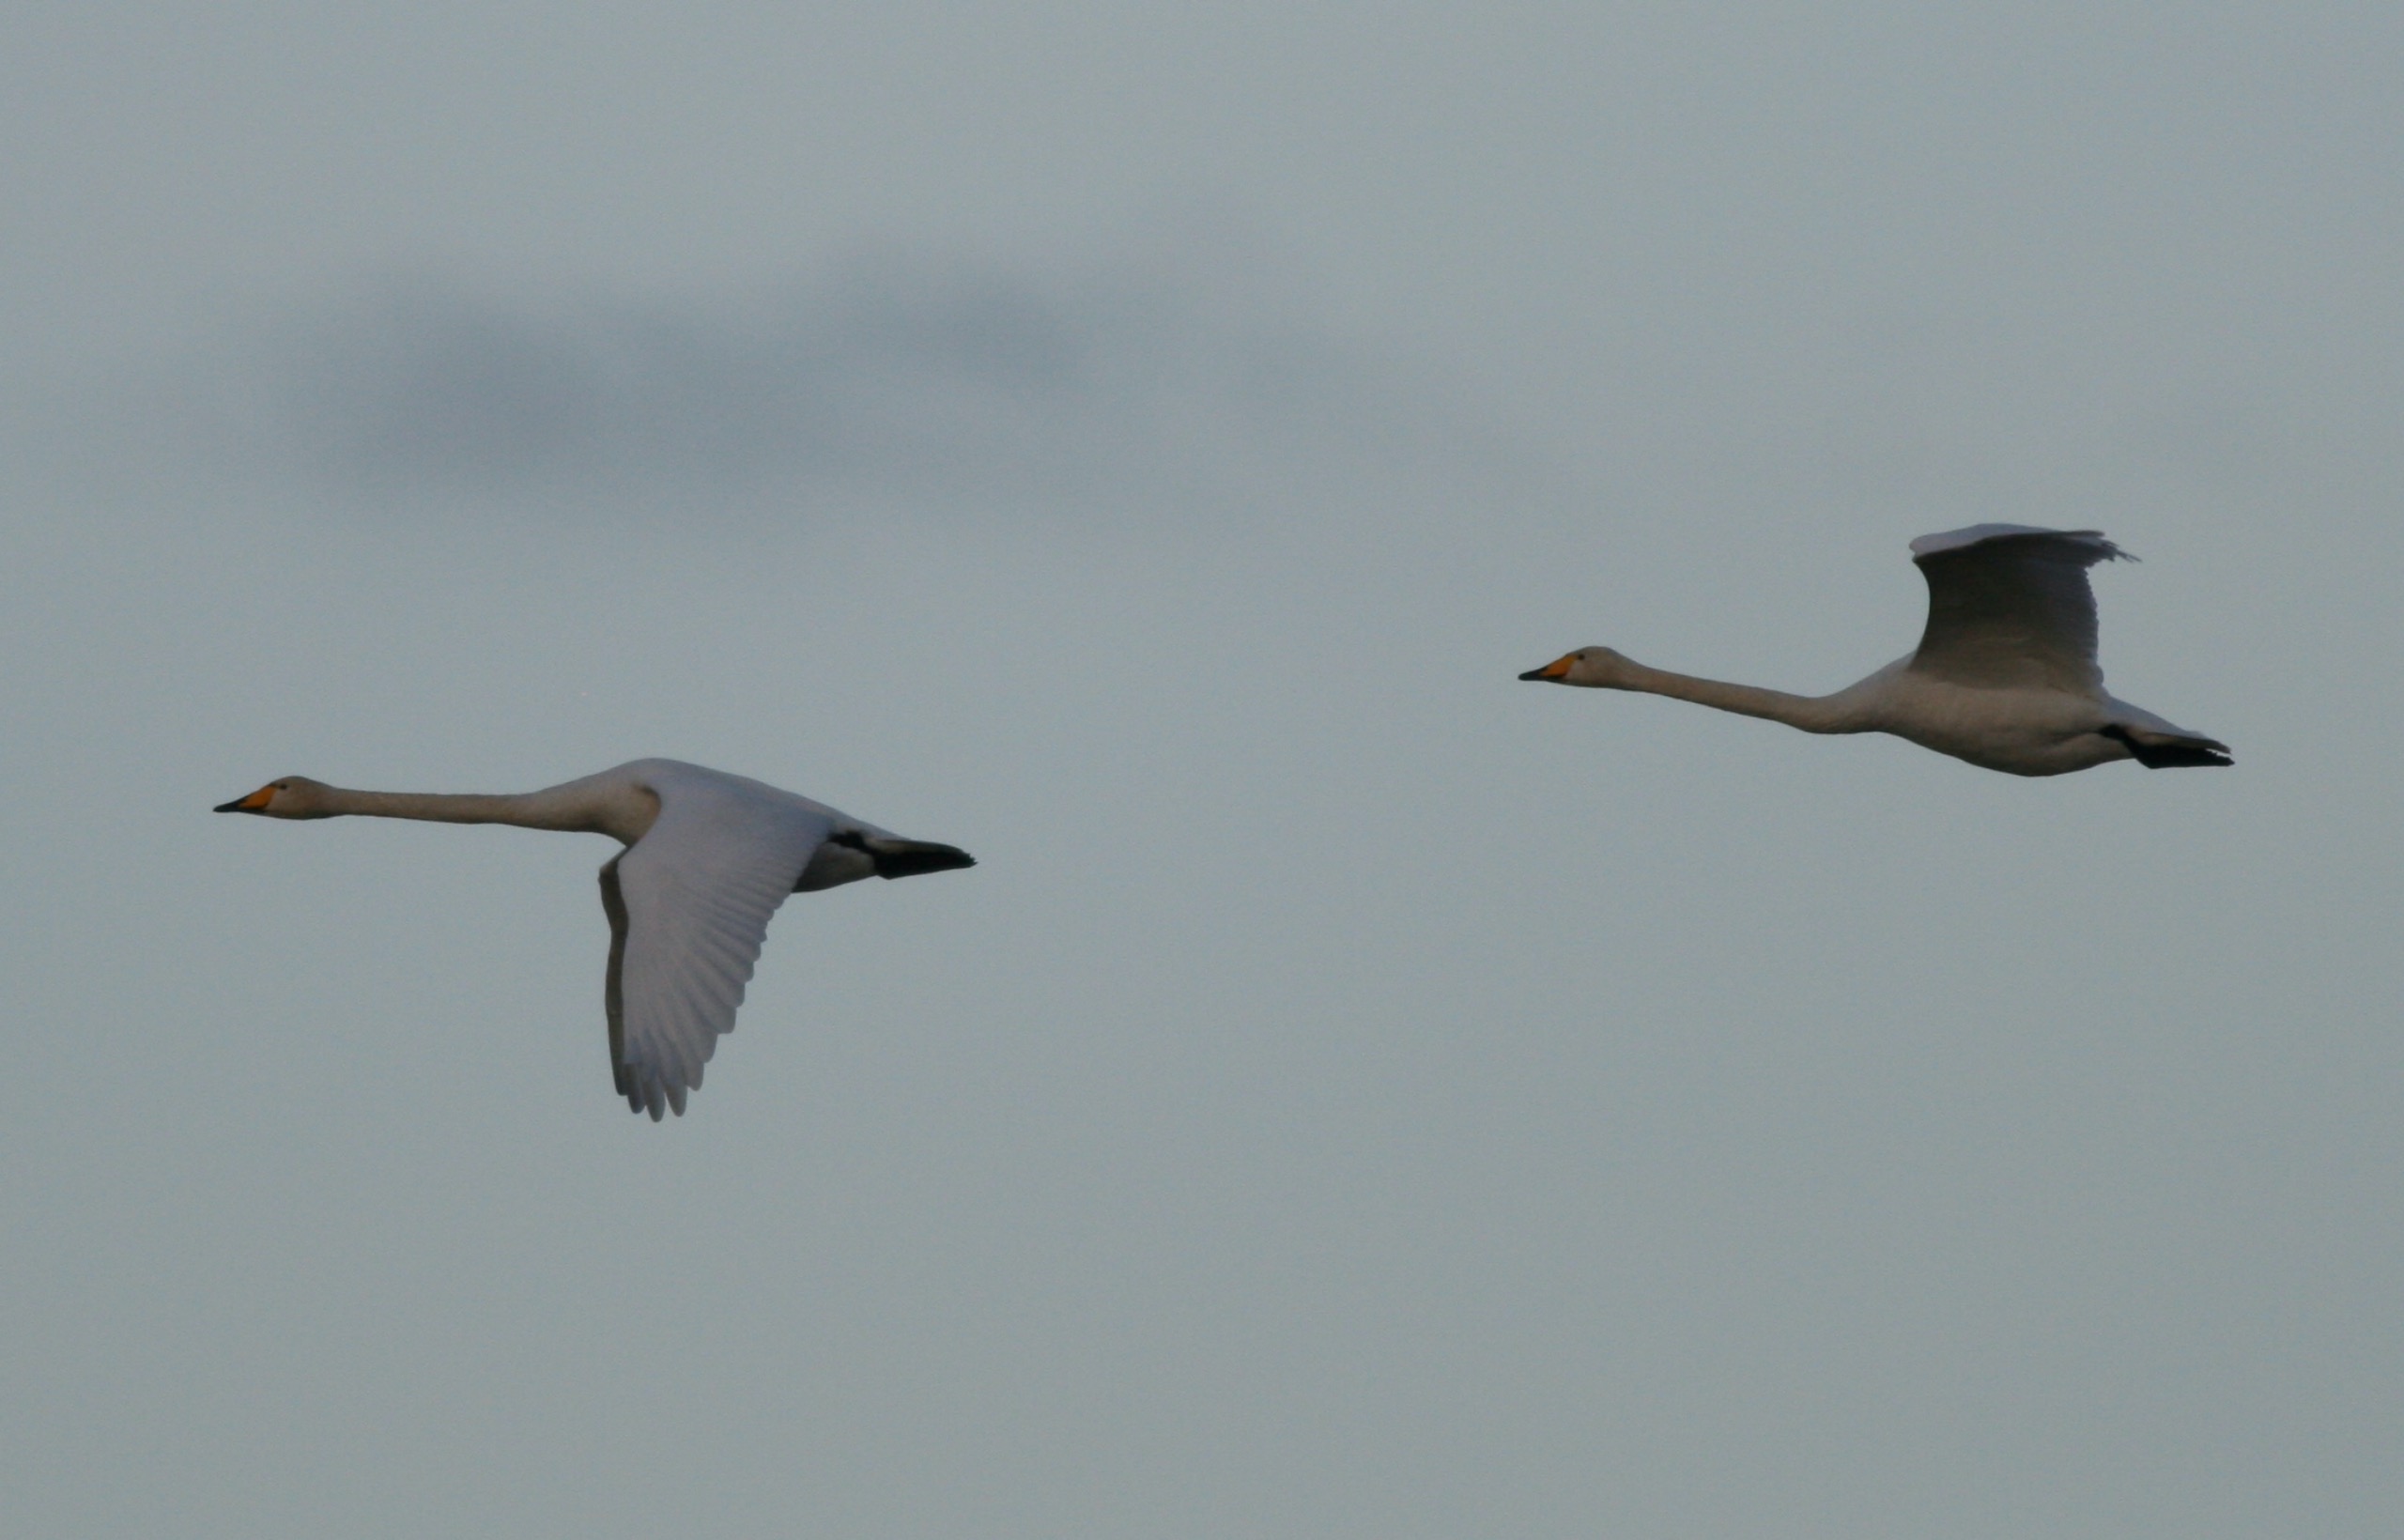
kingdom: Animalia
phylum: Chordata
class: Aves
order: Anseriformes
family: Anatidae
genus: Cygnus
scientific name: Cygnus cygnus
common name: Sangsvane
